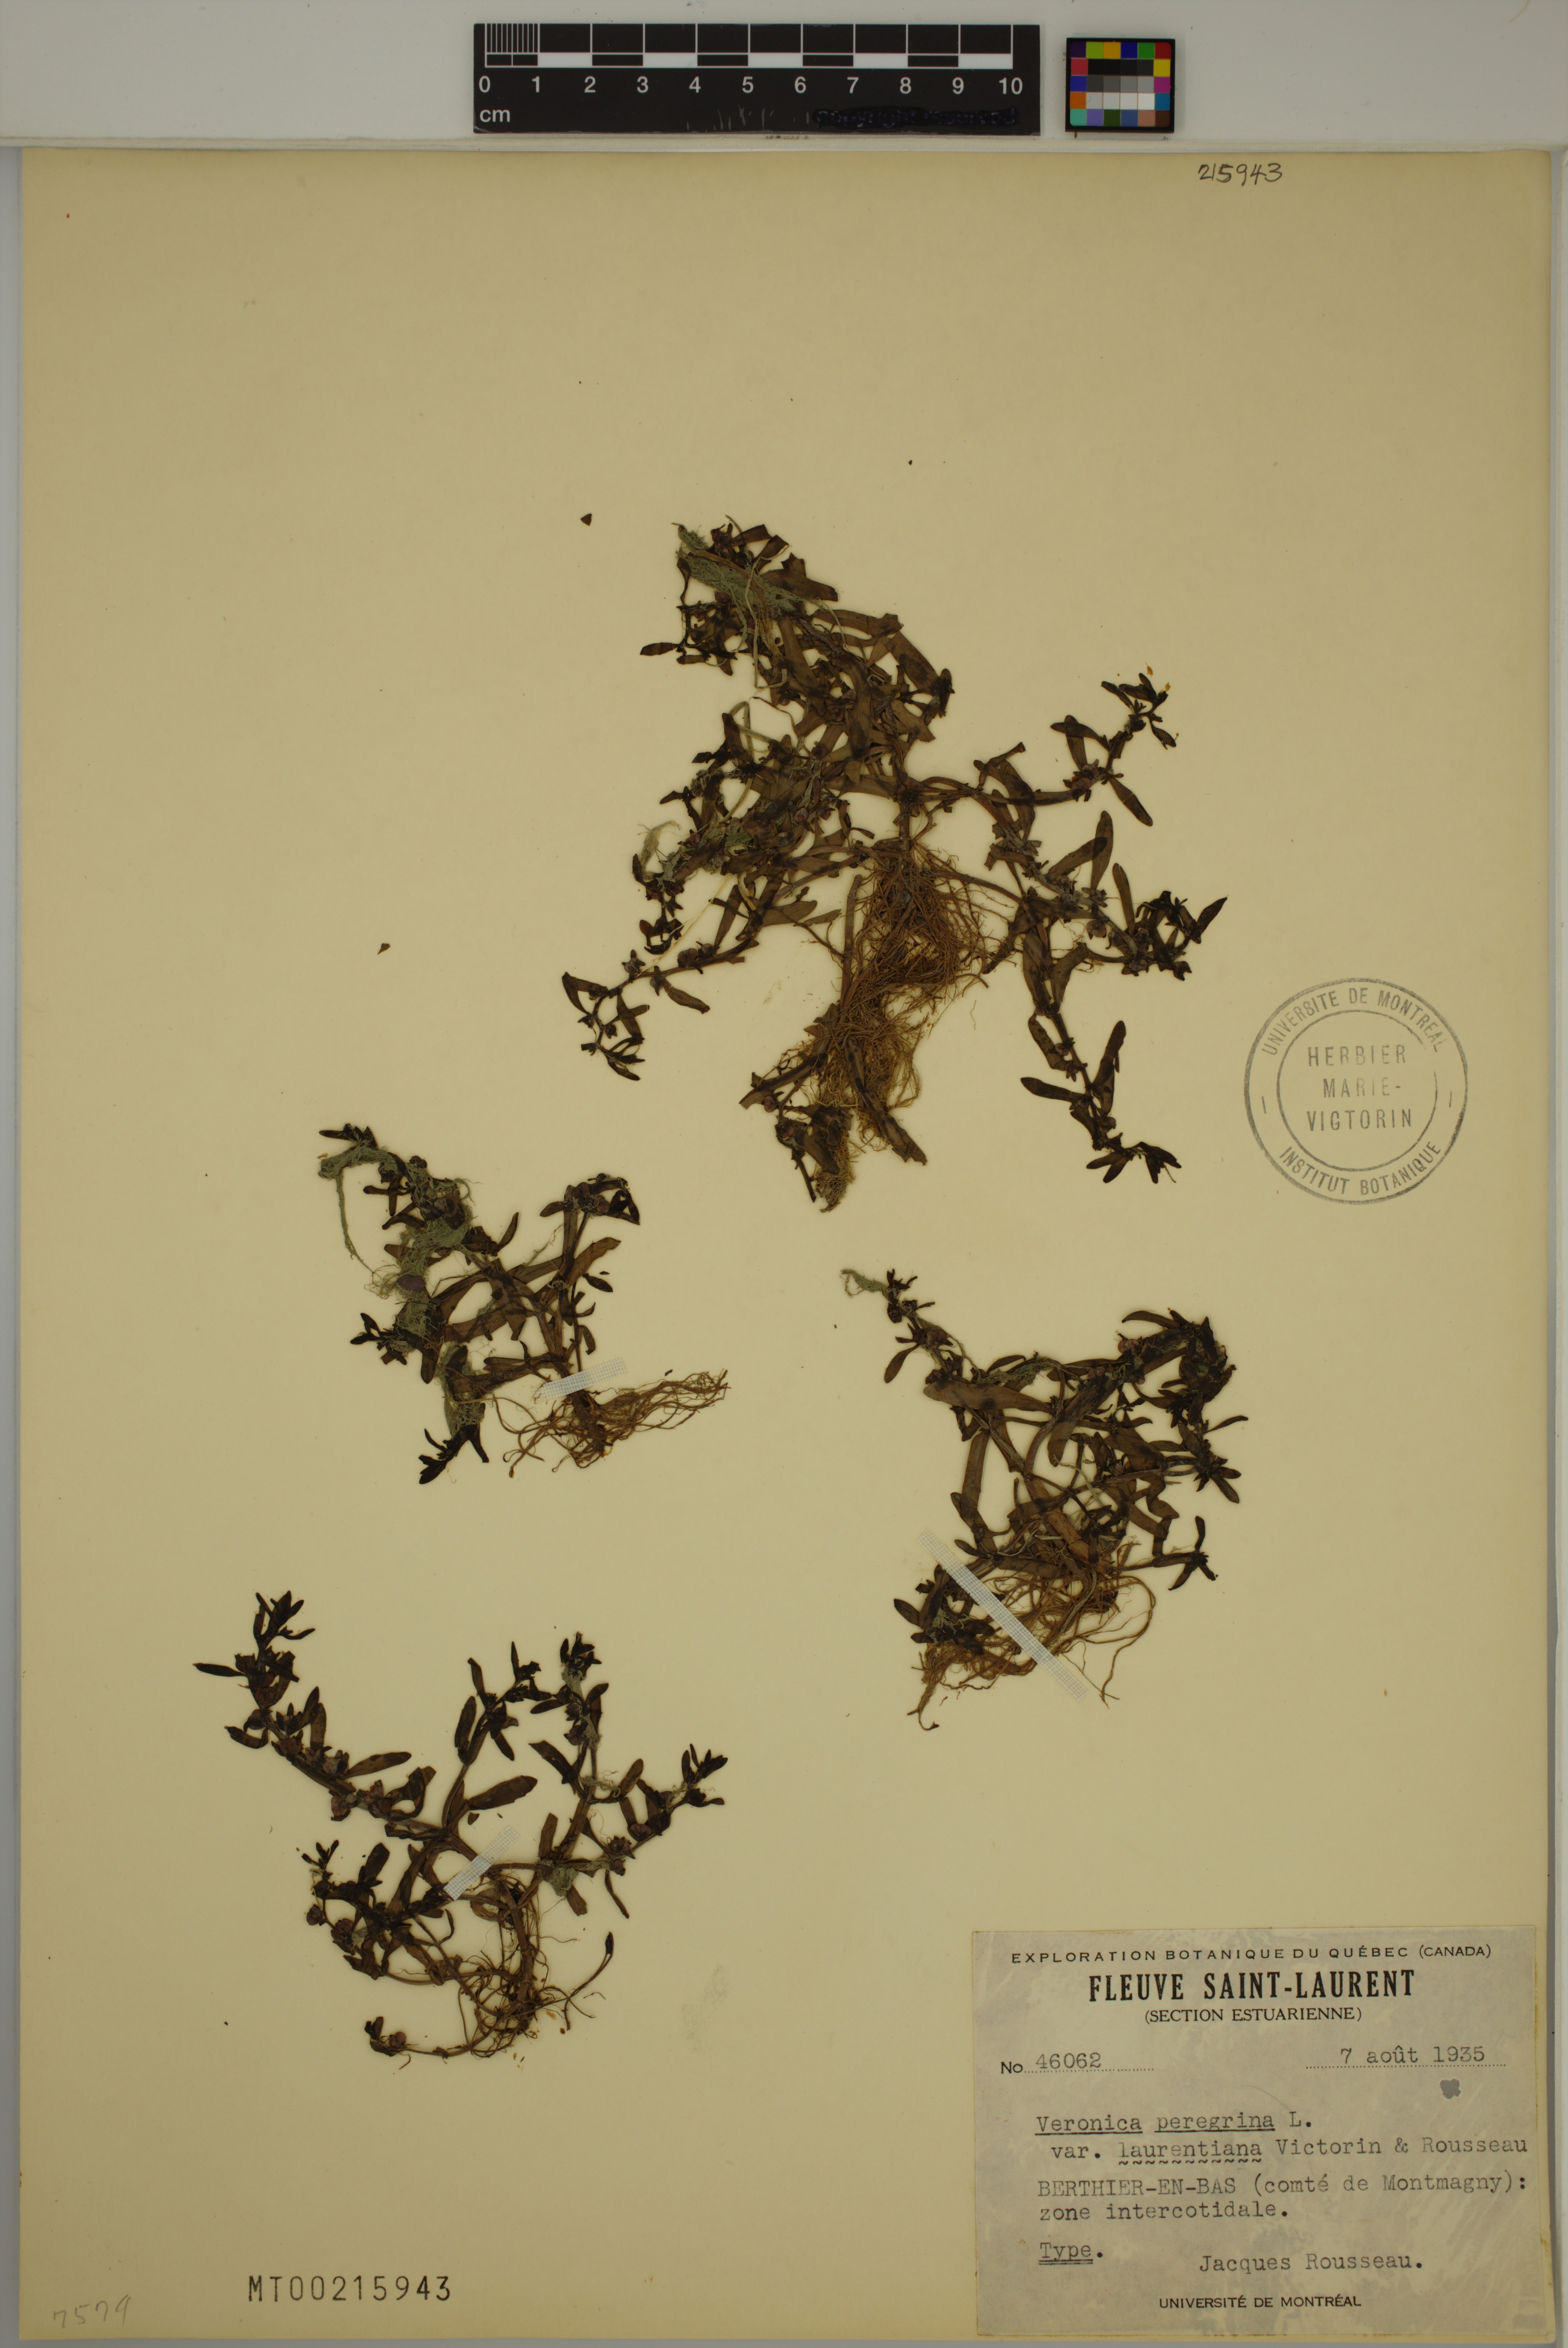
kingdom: Plantae
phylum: Tracheophyta
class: Magnoliopsida
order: Lamiales
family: Plantaginaceae
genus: Veronica
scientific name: Veronica peregrina
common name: Neckweed
